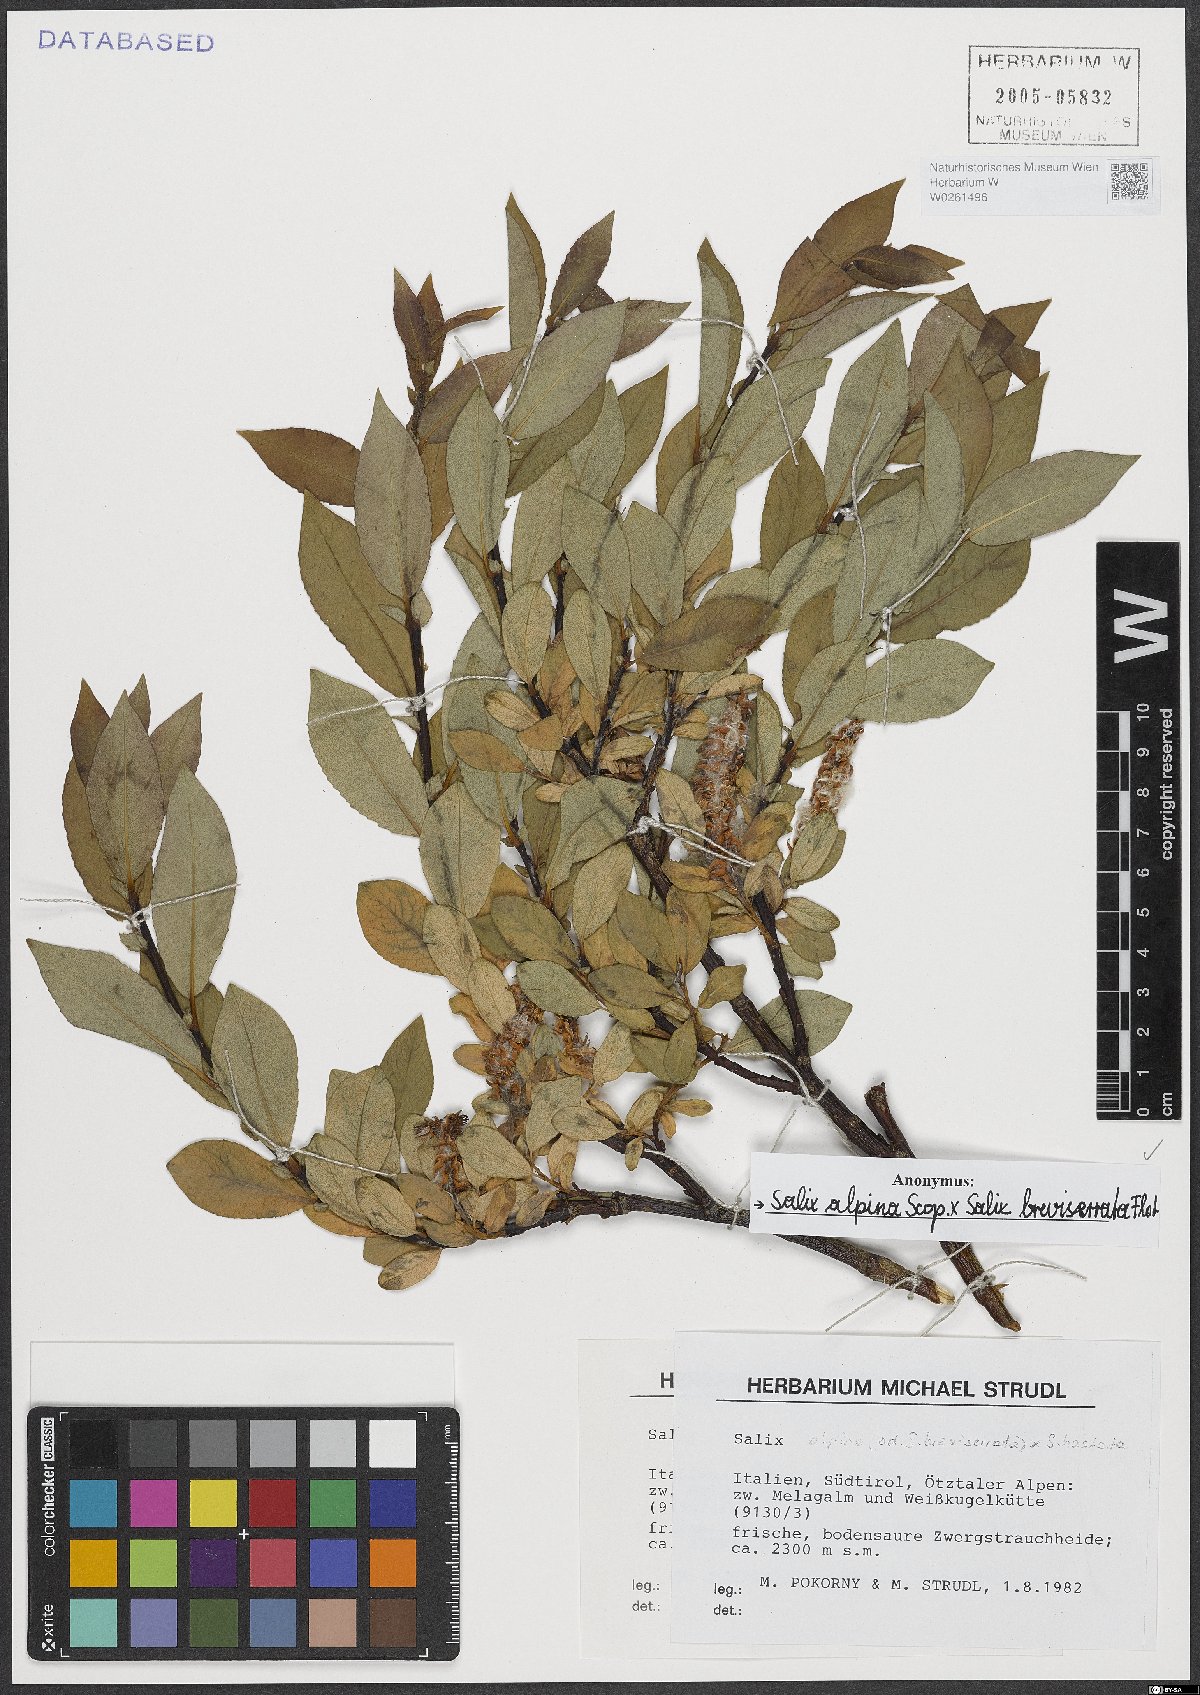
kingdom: Plantae
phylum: Tracheophyta
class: Magnoliopsida
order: Malpighiales
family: Salicaceae
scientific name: Salicaceae
